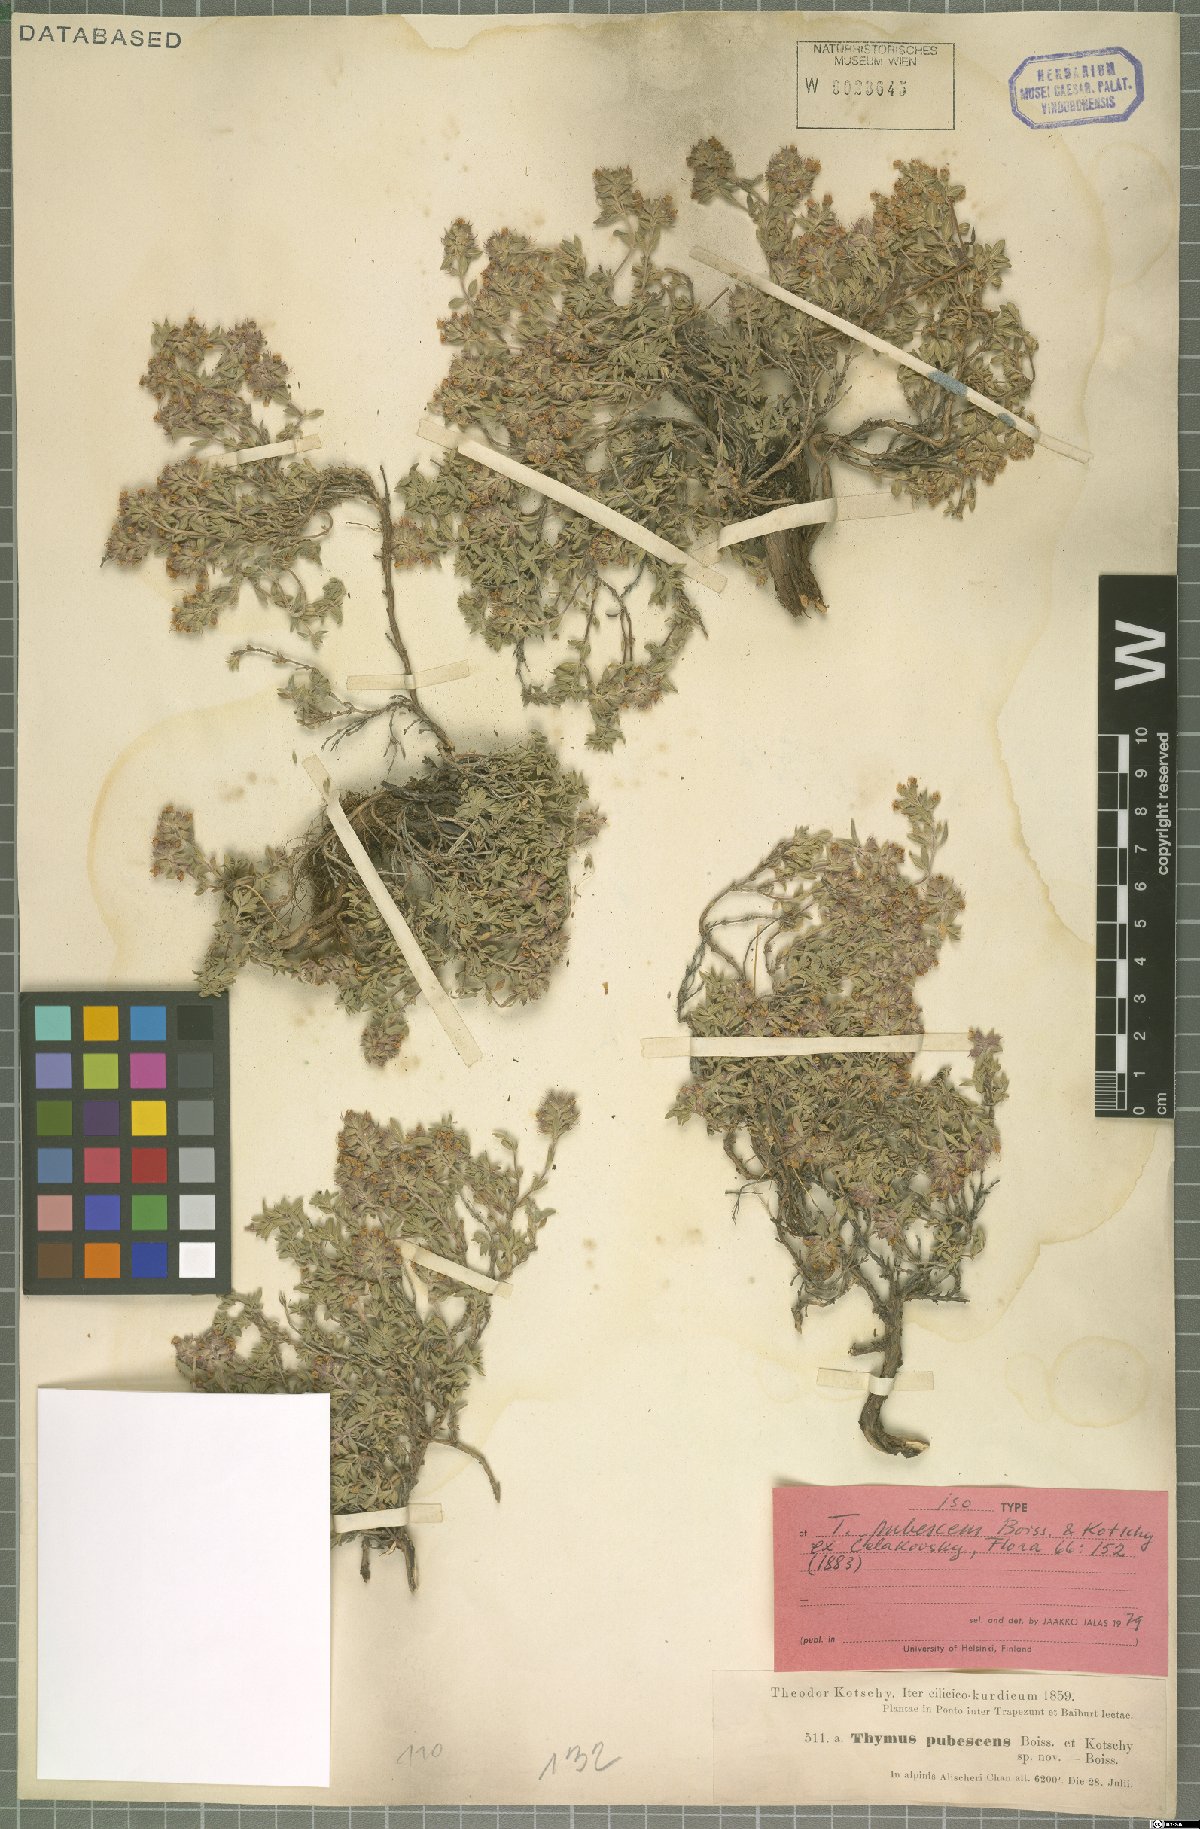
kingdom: Plantae
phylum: Tracheophyta
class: Magnoliopsida
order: Lamiales
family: Lamiaceae
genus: Thymus
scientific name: Thymus pubescens
